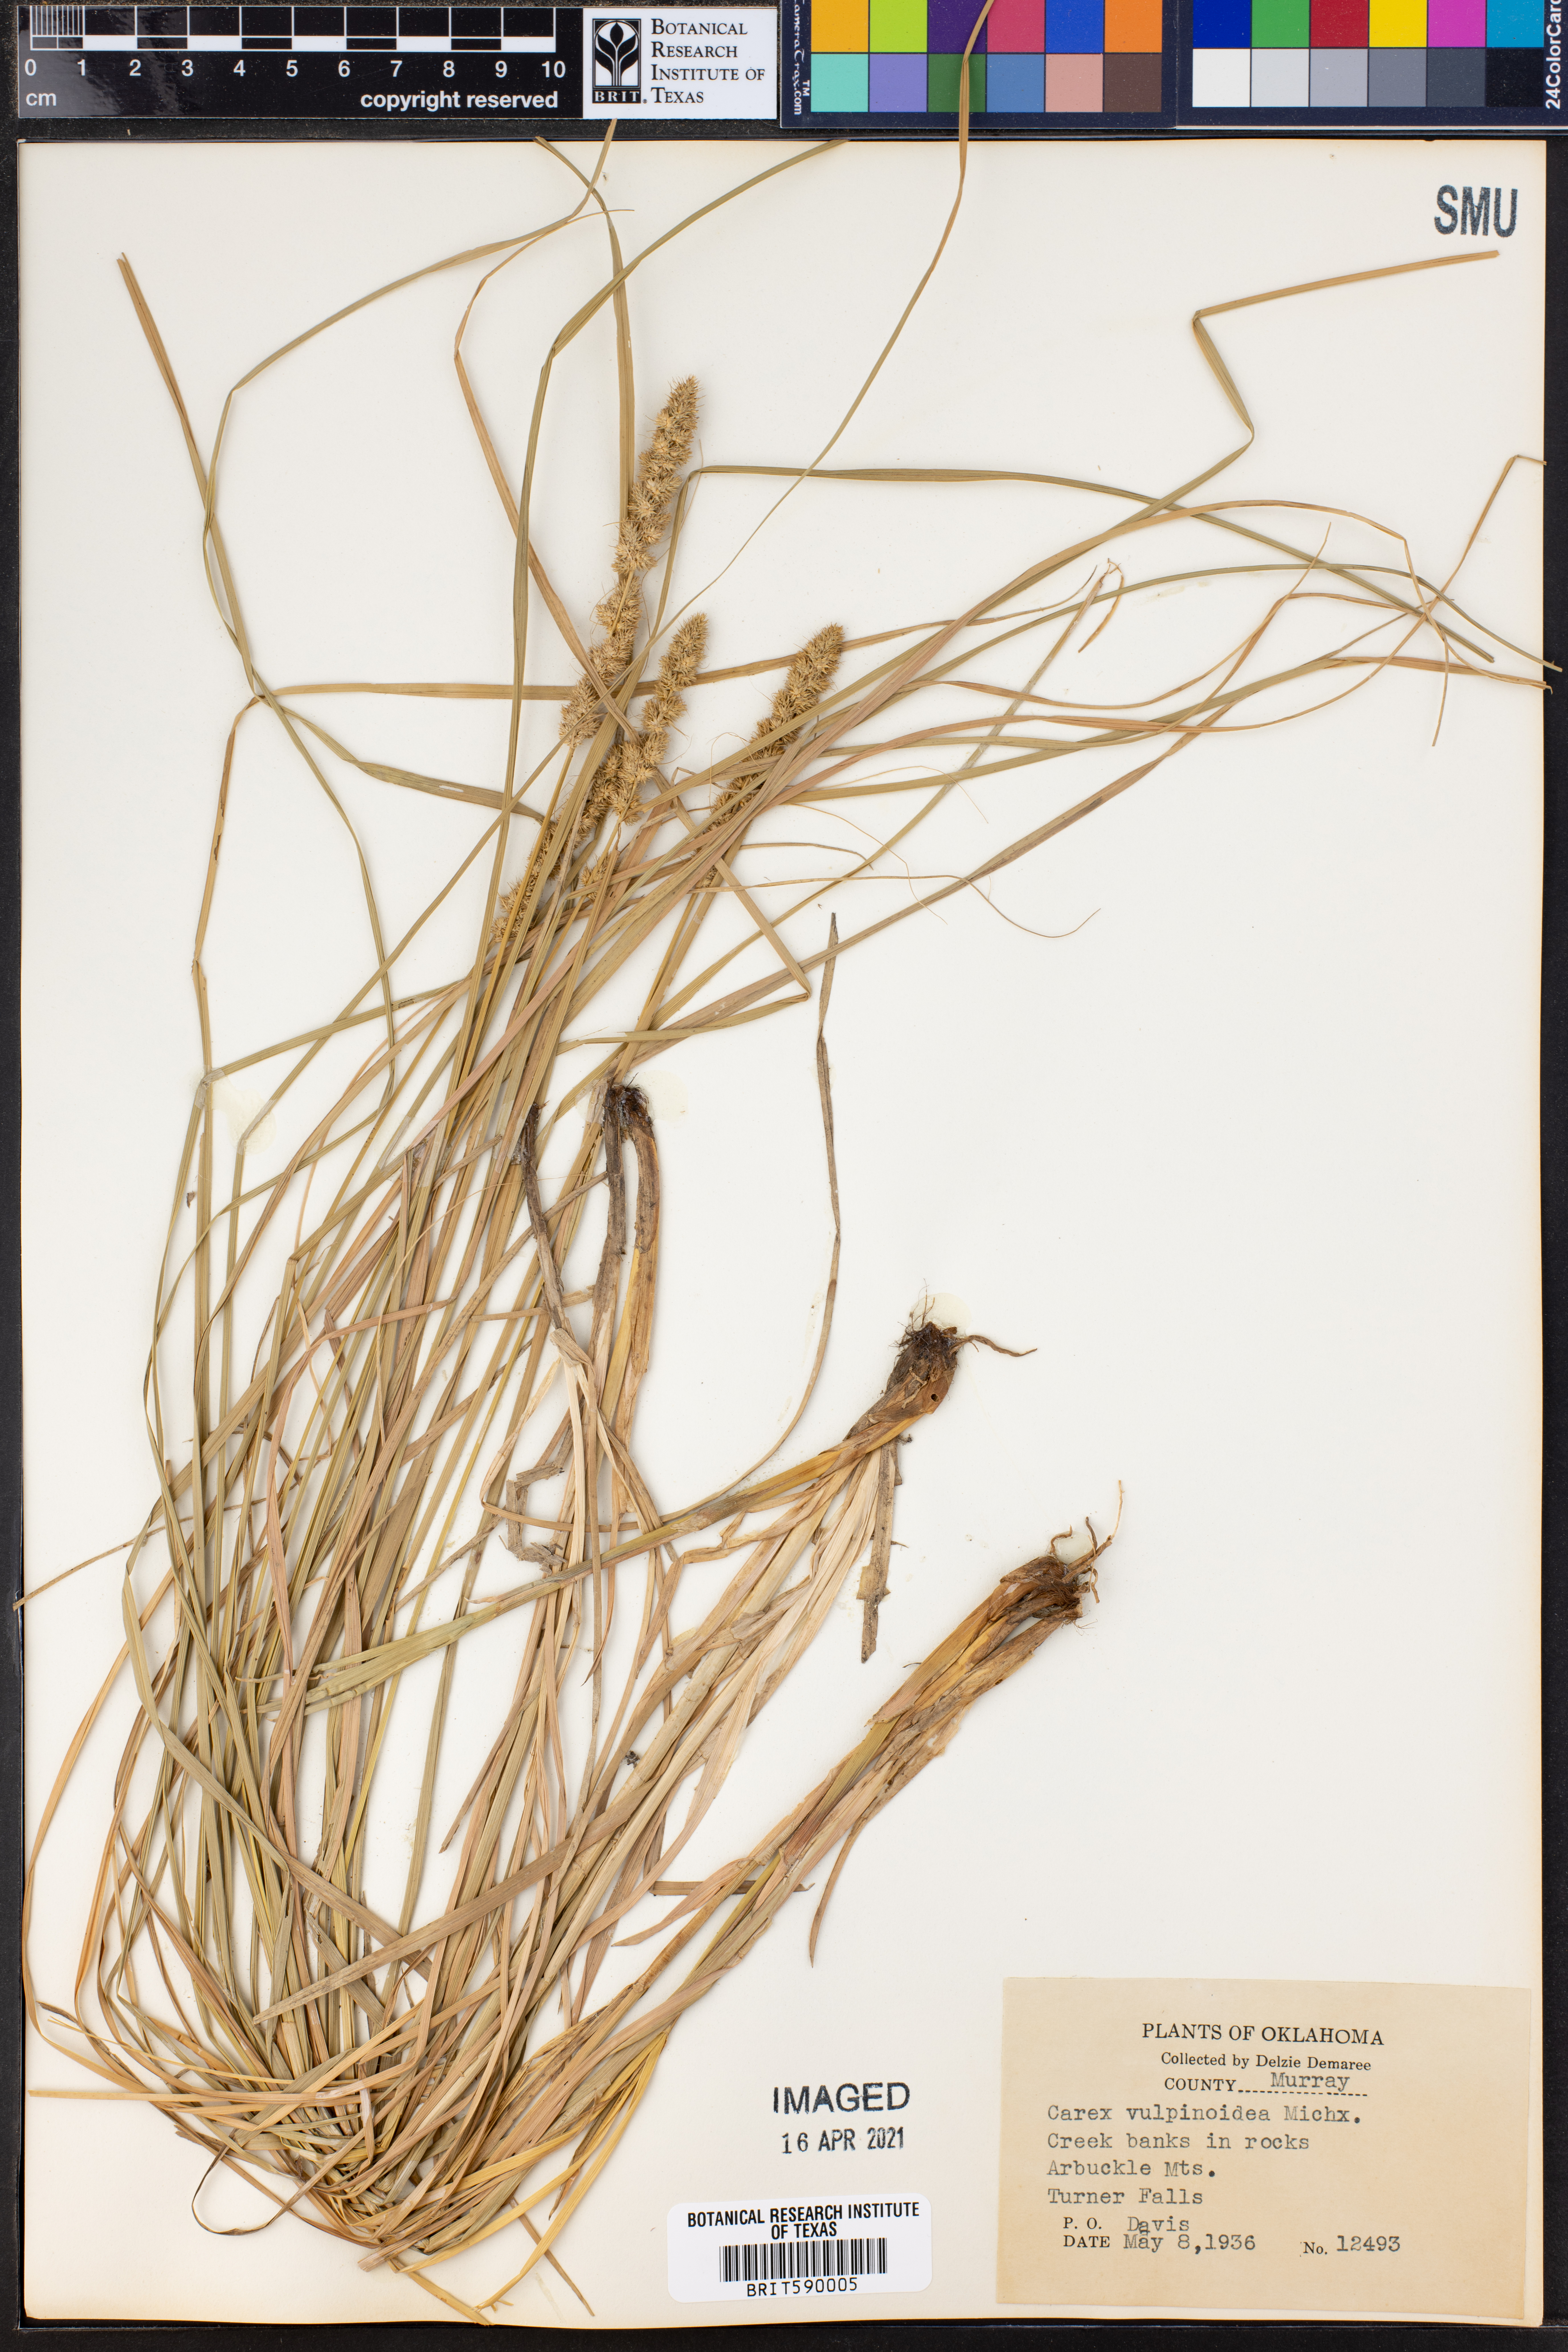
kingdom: Plantae
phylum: Tracheophyta
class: Liliopsida
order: Poales
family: Cyperaceae
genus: Carex
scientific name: Carex vulpinoidea
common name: American fox-sedge
